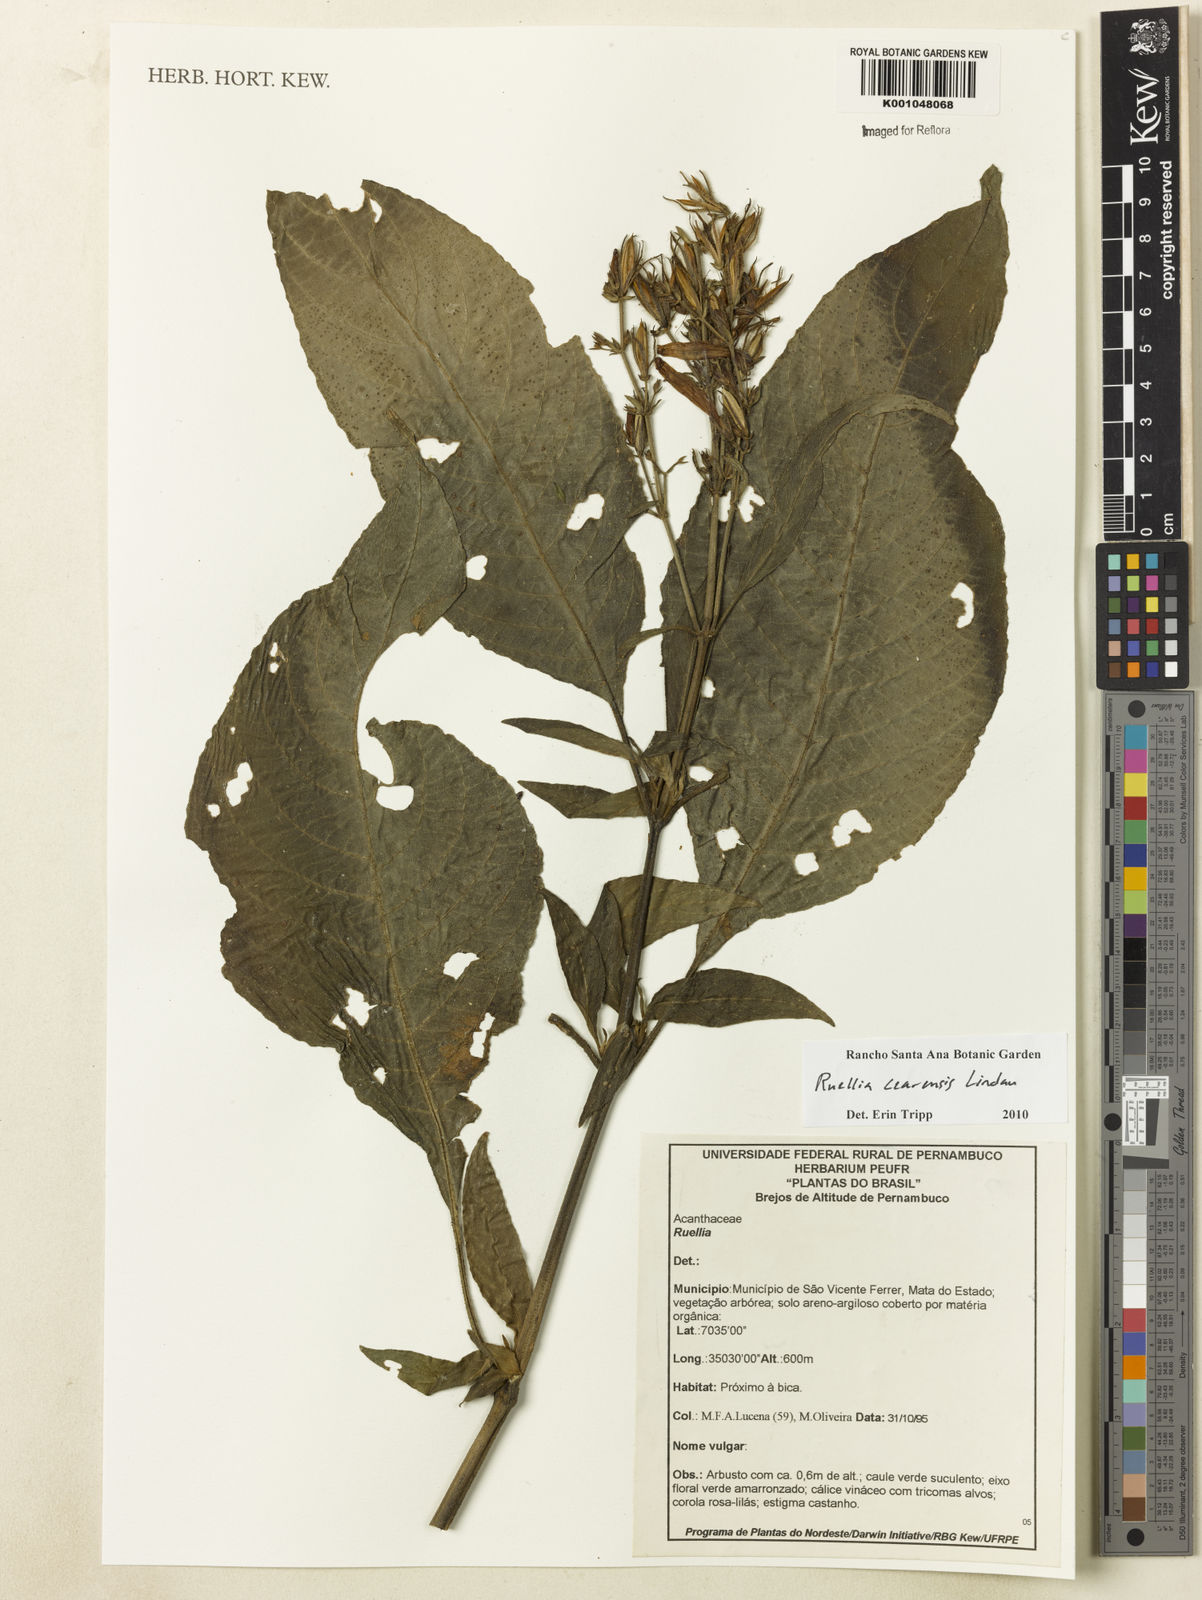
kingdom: Plantae
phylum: Tracheophyta
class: Magnoliopsida
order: Lamiales
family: Acanthaceae
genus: Ruellia
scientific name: Ruellia cearensis
